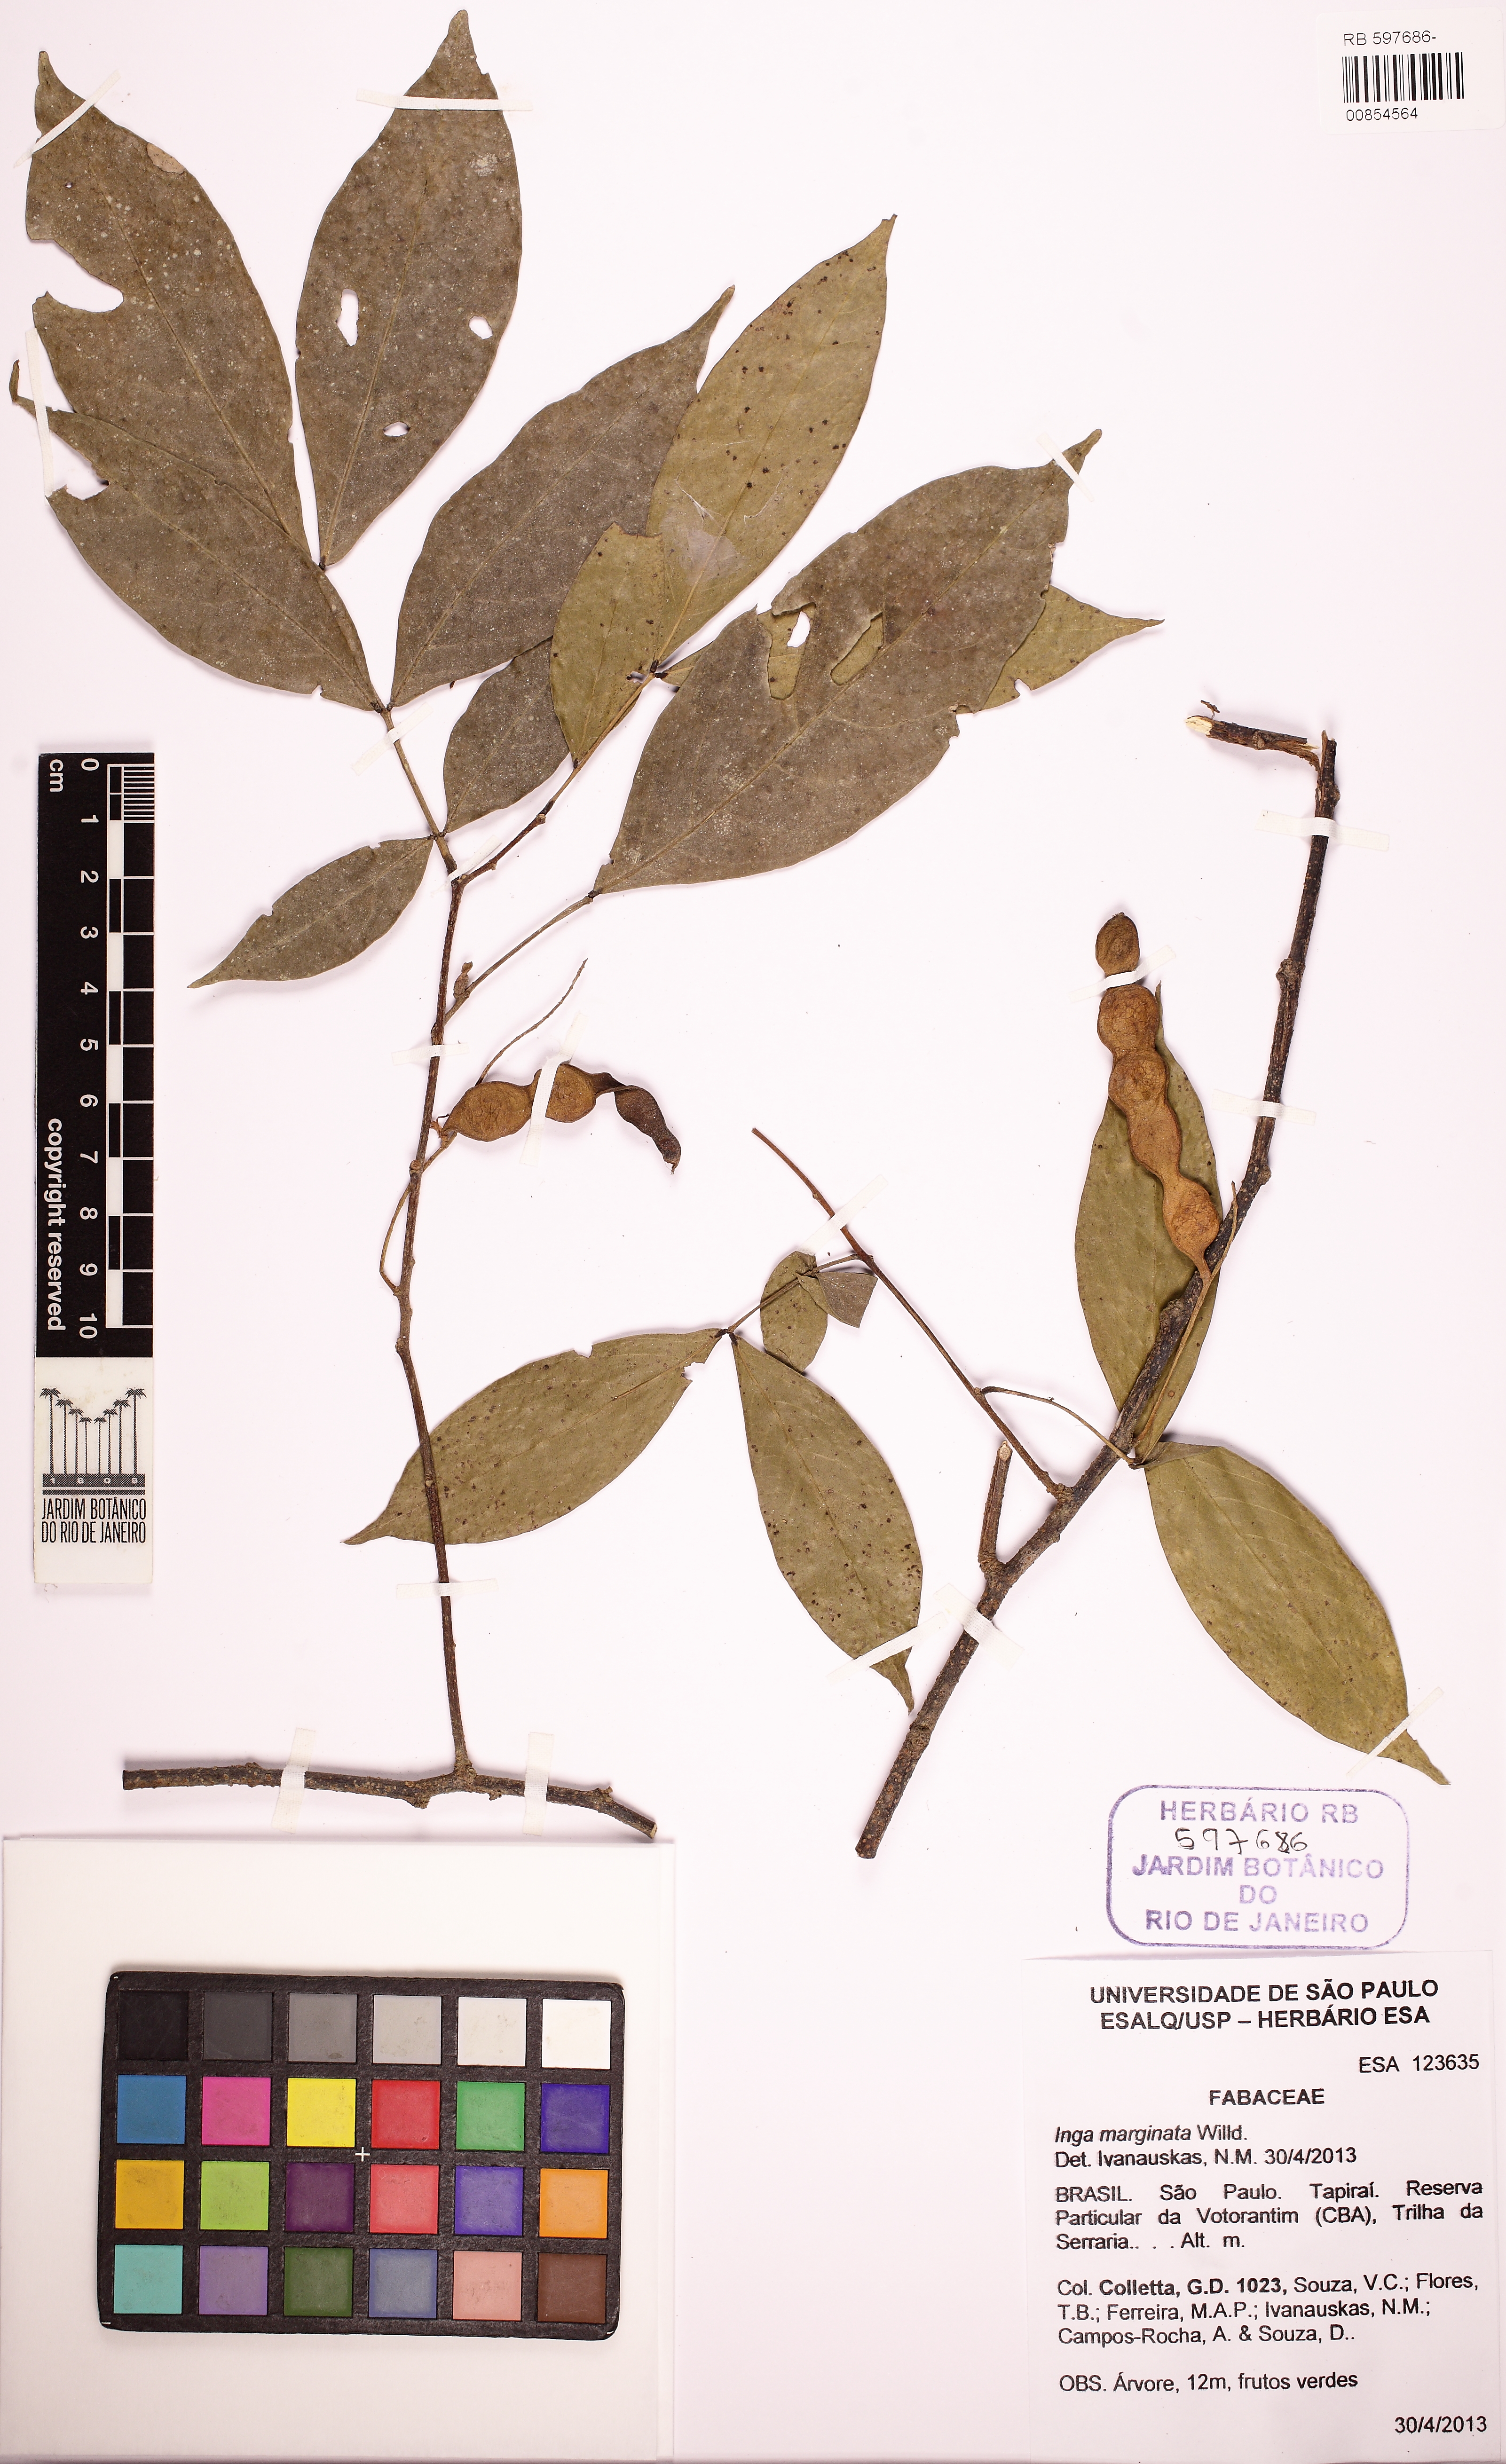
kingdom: Plantae
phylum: Tracheophyta
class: Magnoliopsida
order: Fabales
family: Fabaceae
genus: Inga
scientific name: Inga marginata
